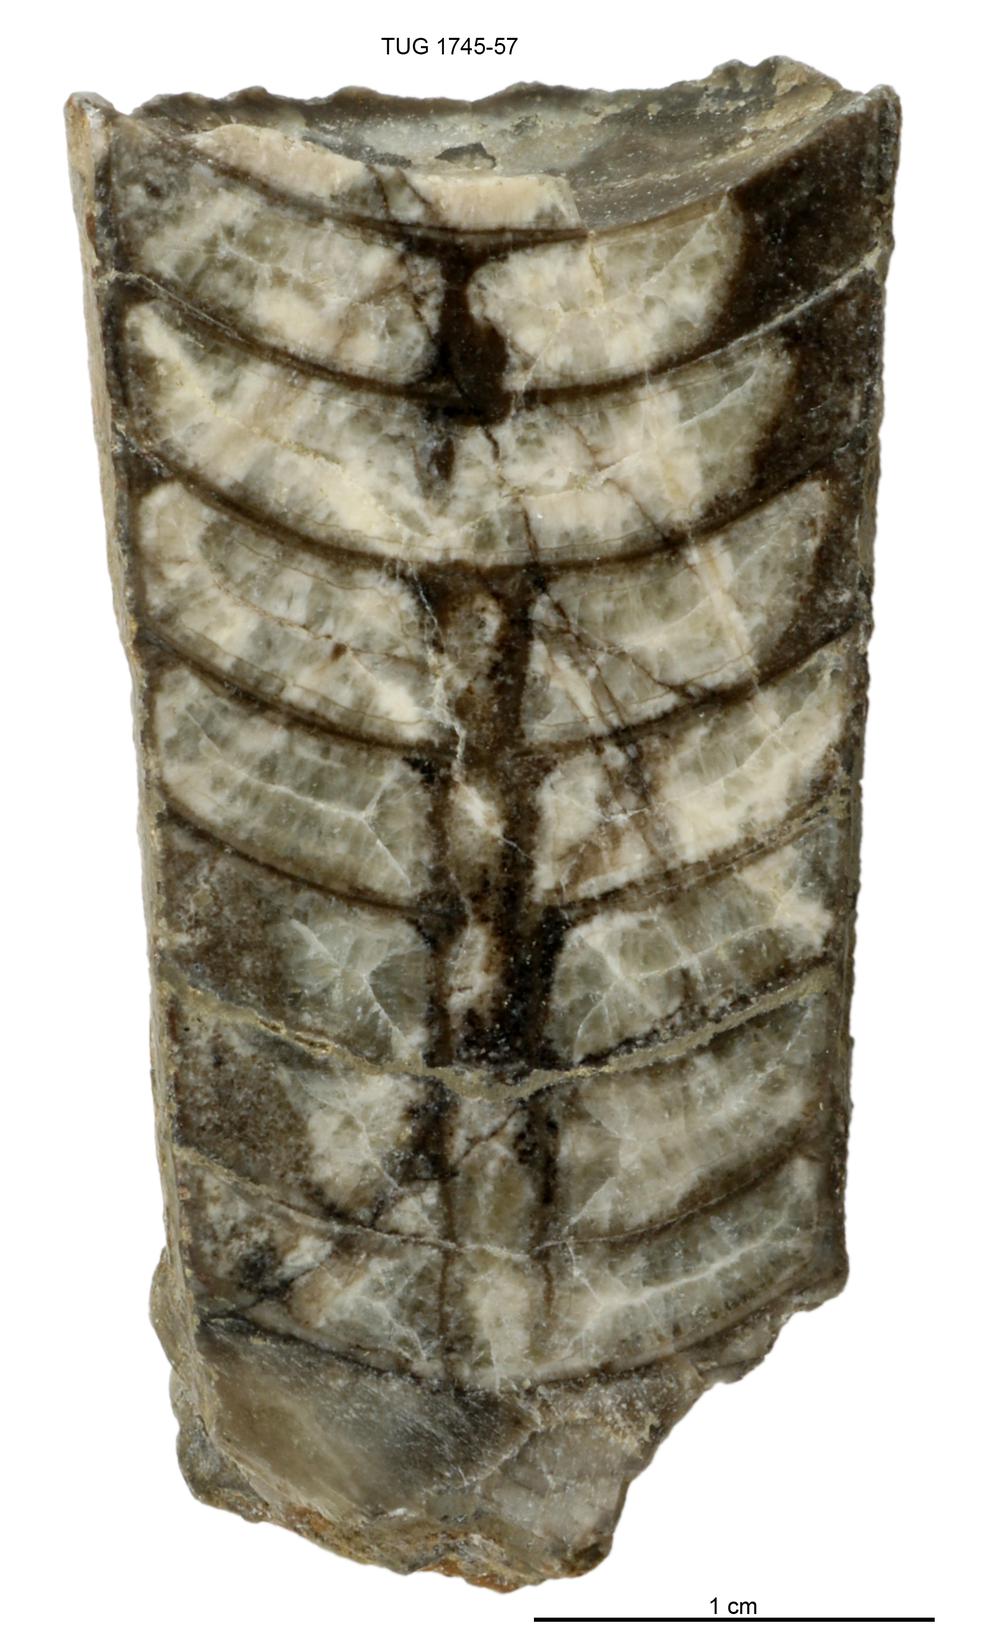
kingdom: Animalia
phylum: Mollusca
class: Cephalopoda
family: Armenoceratidae
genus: Armenoceras
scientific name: Armenoceras Orthoceras nummularius
